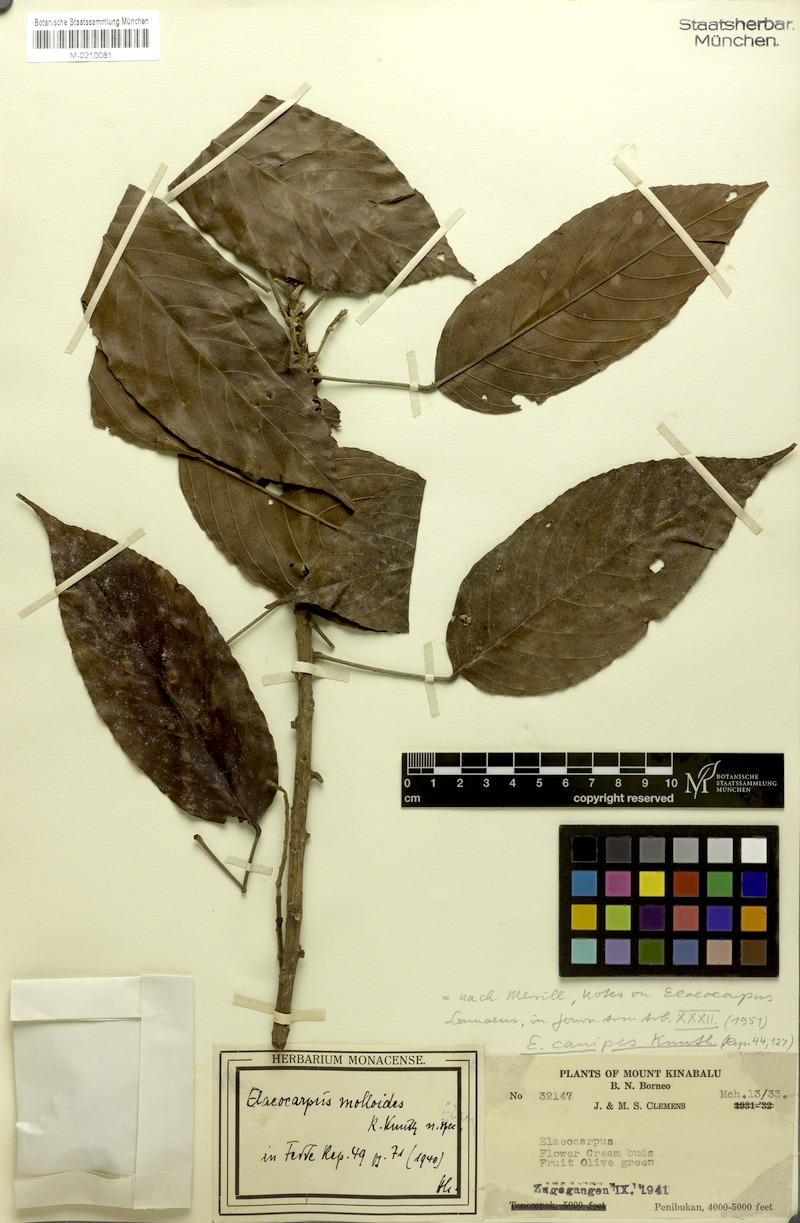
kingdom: Plantae
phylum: Tracheophyta
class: Magnoliopsida
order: Oxalidales
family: Elaeocarpaceae
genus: Elaeocarpus
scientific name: Elaeocarpus clementis
